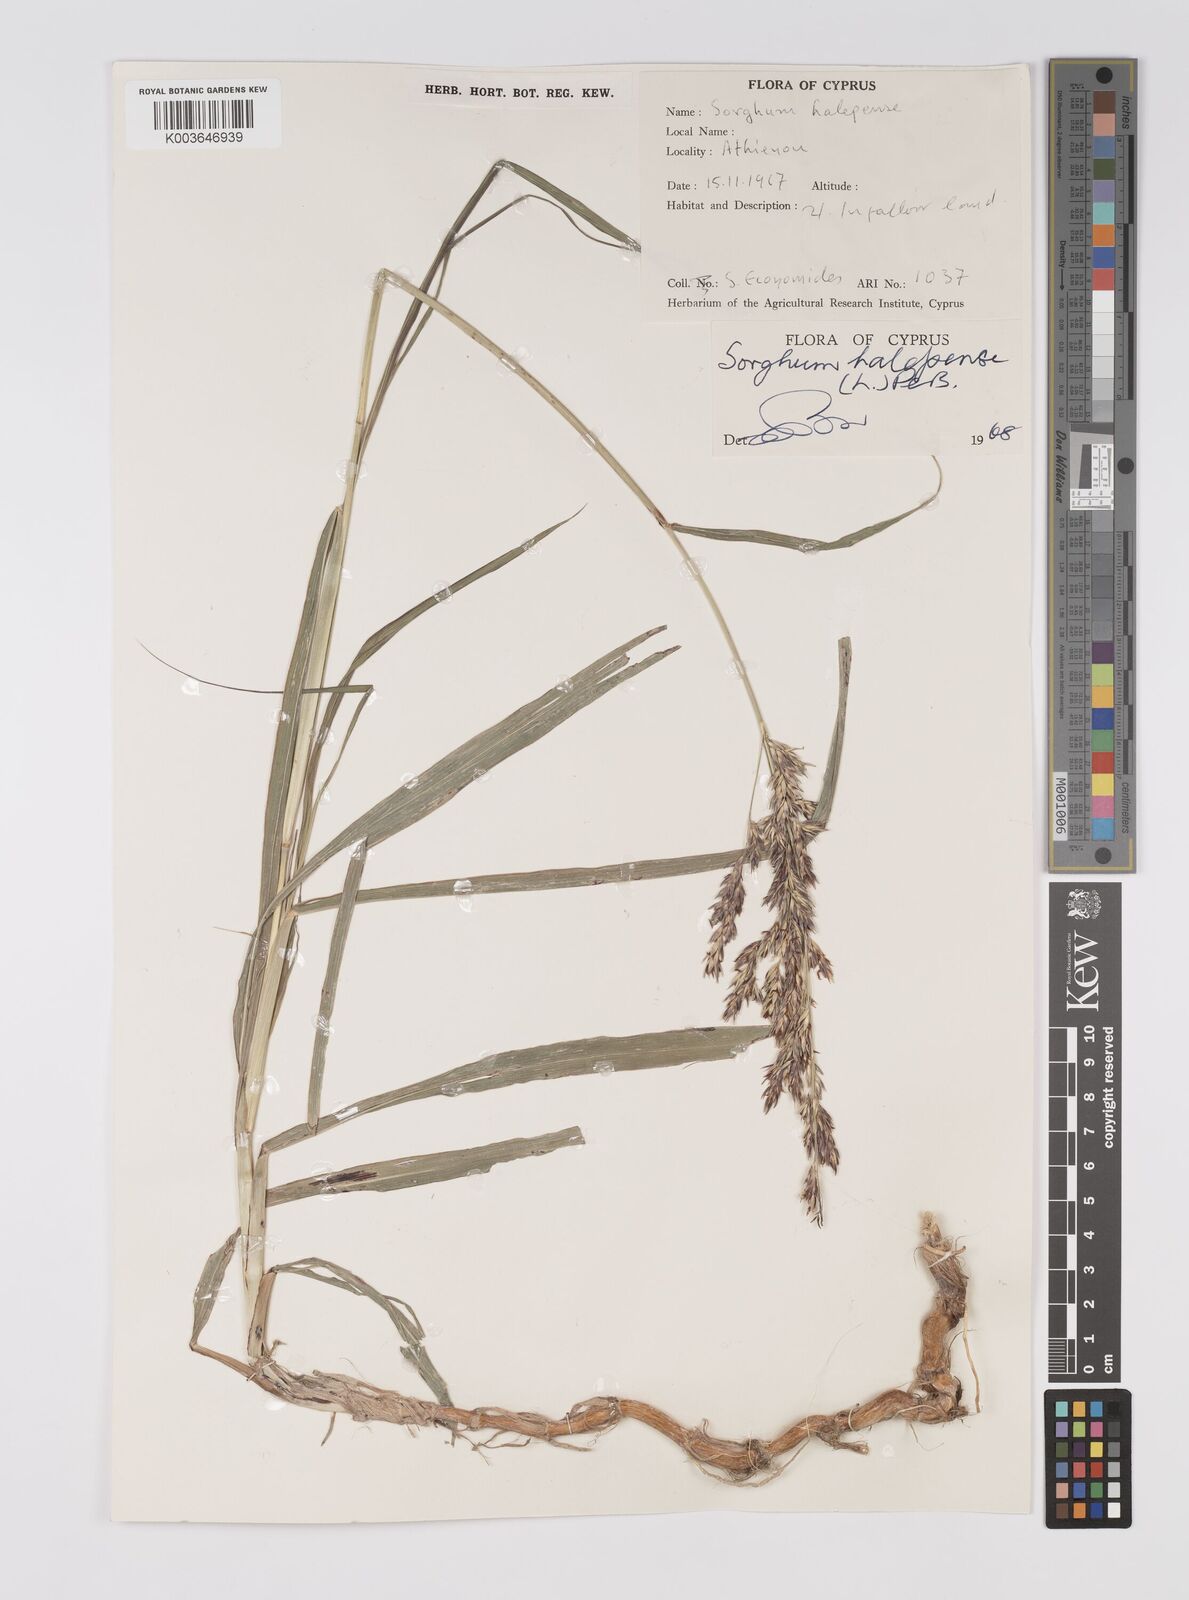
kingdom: Plantae
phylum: Tracheophyta
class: Liliopsida
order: Poales
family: Poaceae
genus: Sorghum
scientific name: Sorghum halepense
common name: Johnson-grass
